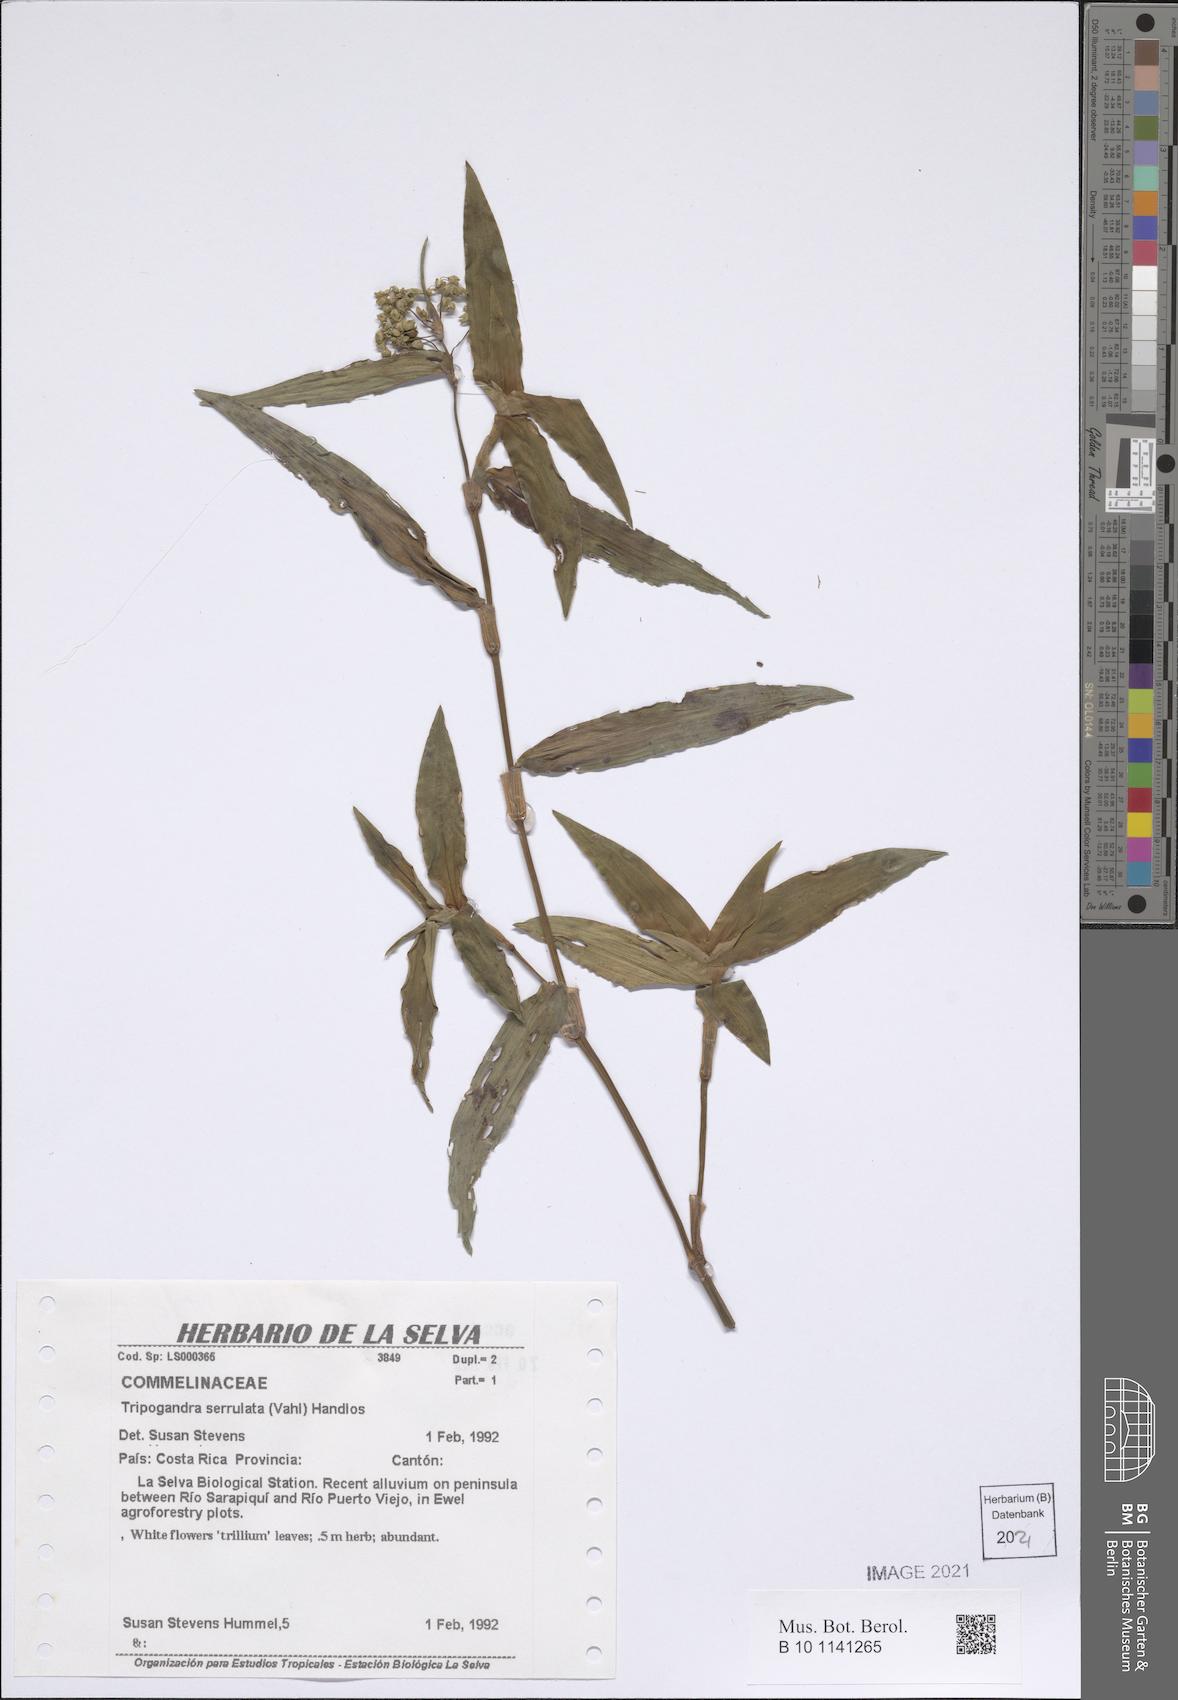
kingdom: Plantae
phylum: Tracheophyta
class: Liliopsida
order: Commelinales
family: Commelinaceae
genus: Callisia
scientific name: Callisia serrulata
